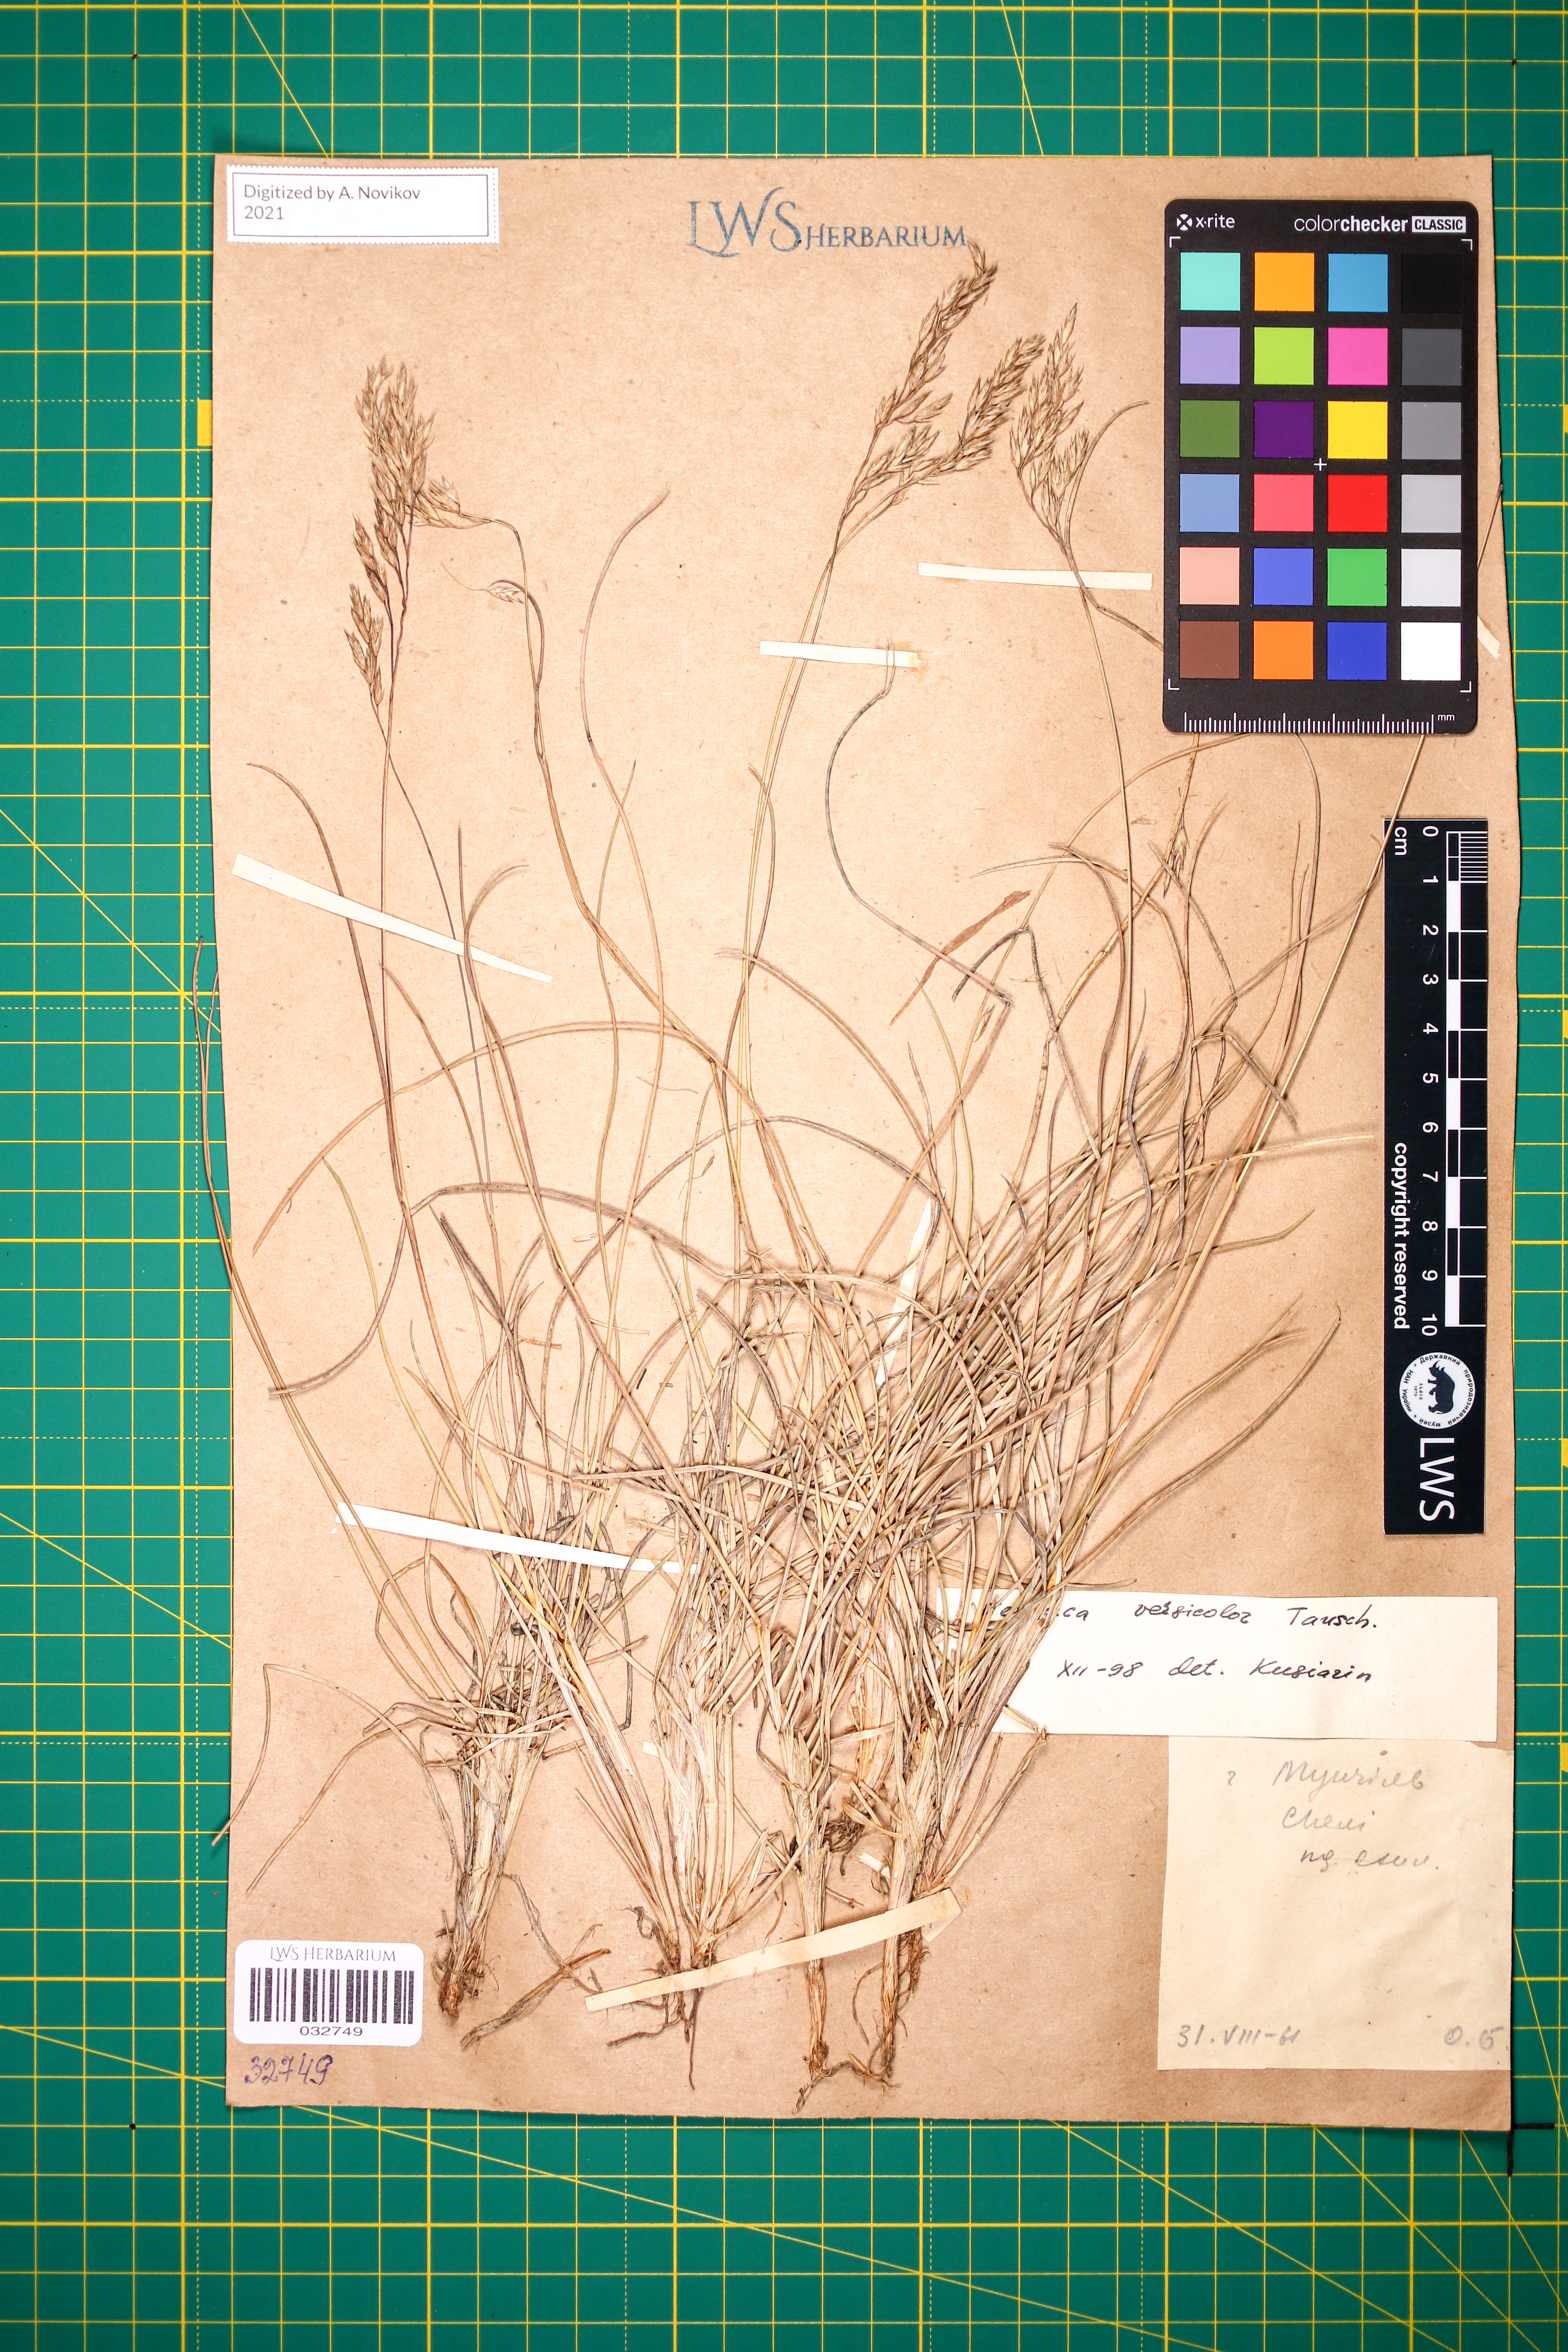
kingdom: Plantae
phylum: Tracheophyta
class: Liliopsida
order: Poales
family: Poaceae
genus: Festuca
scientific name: Festuca versicolor
